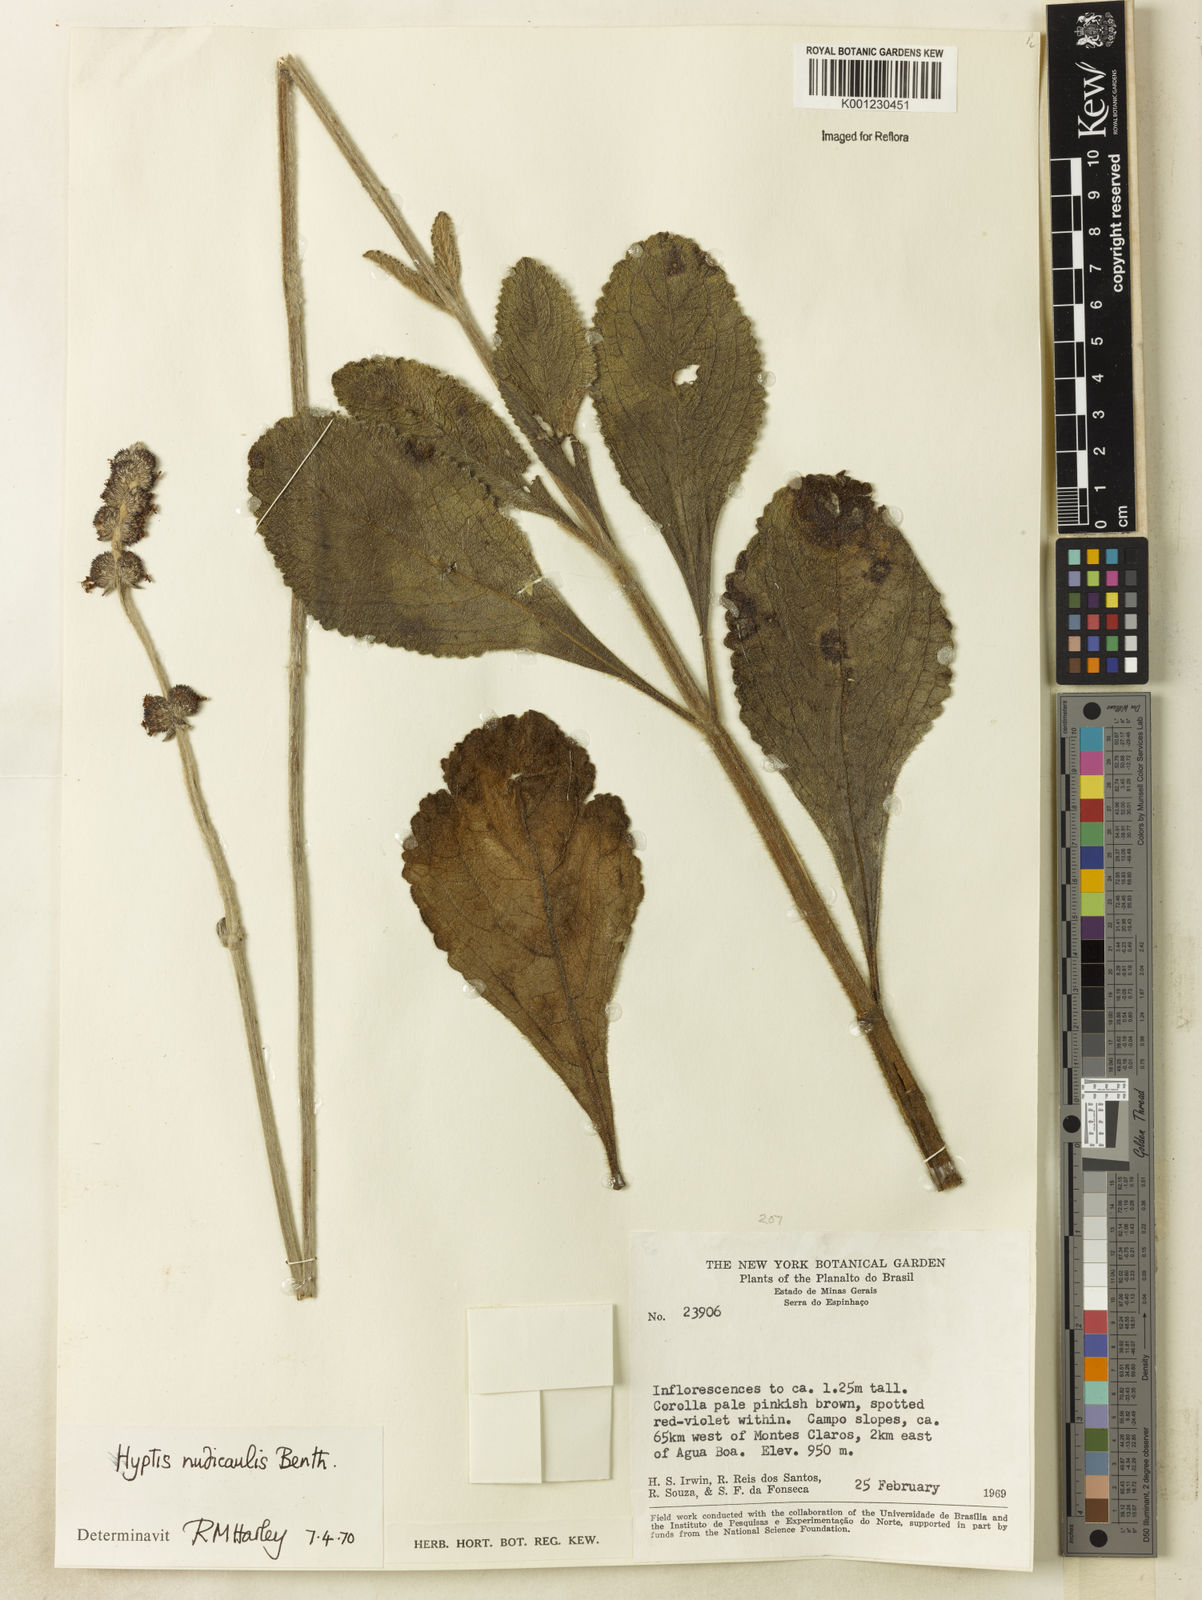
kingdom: Plantae
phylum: Tracheophyta
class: Magnoliopsida
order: Lamiales
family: Lamiaceae
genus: Hyptis
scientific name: Hyptis nudicaulis
